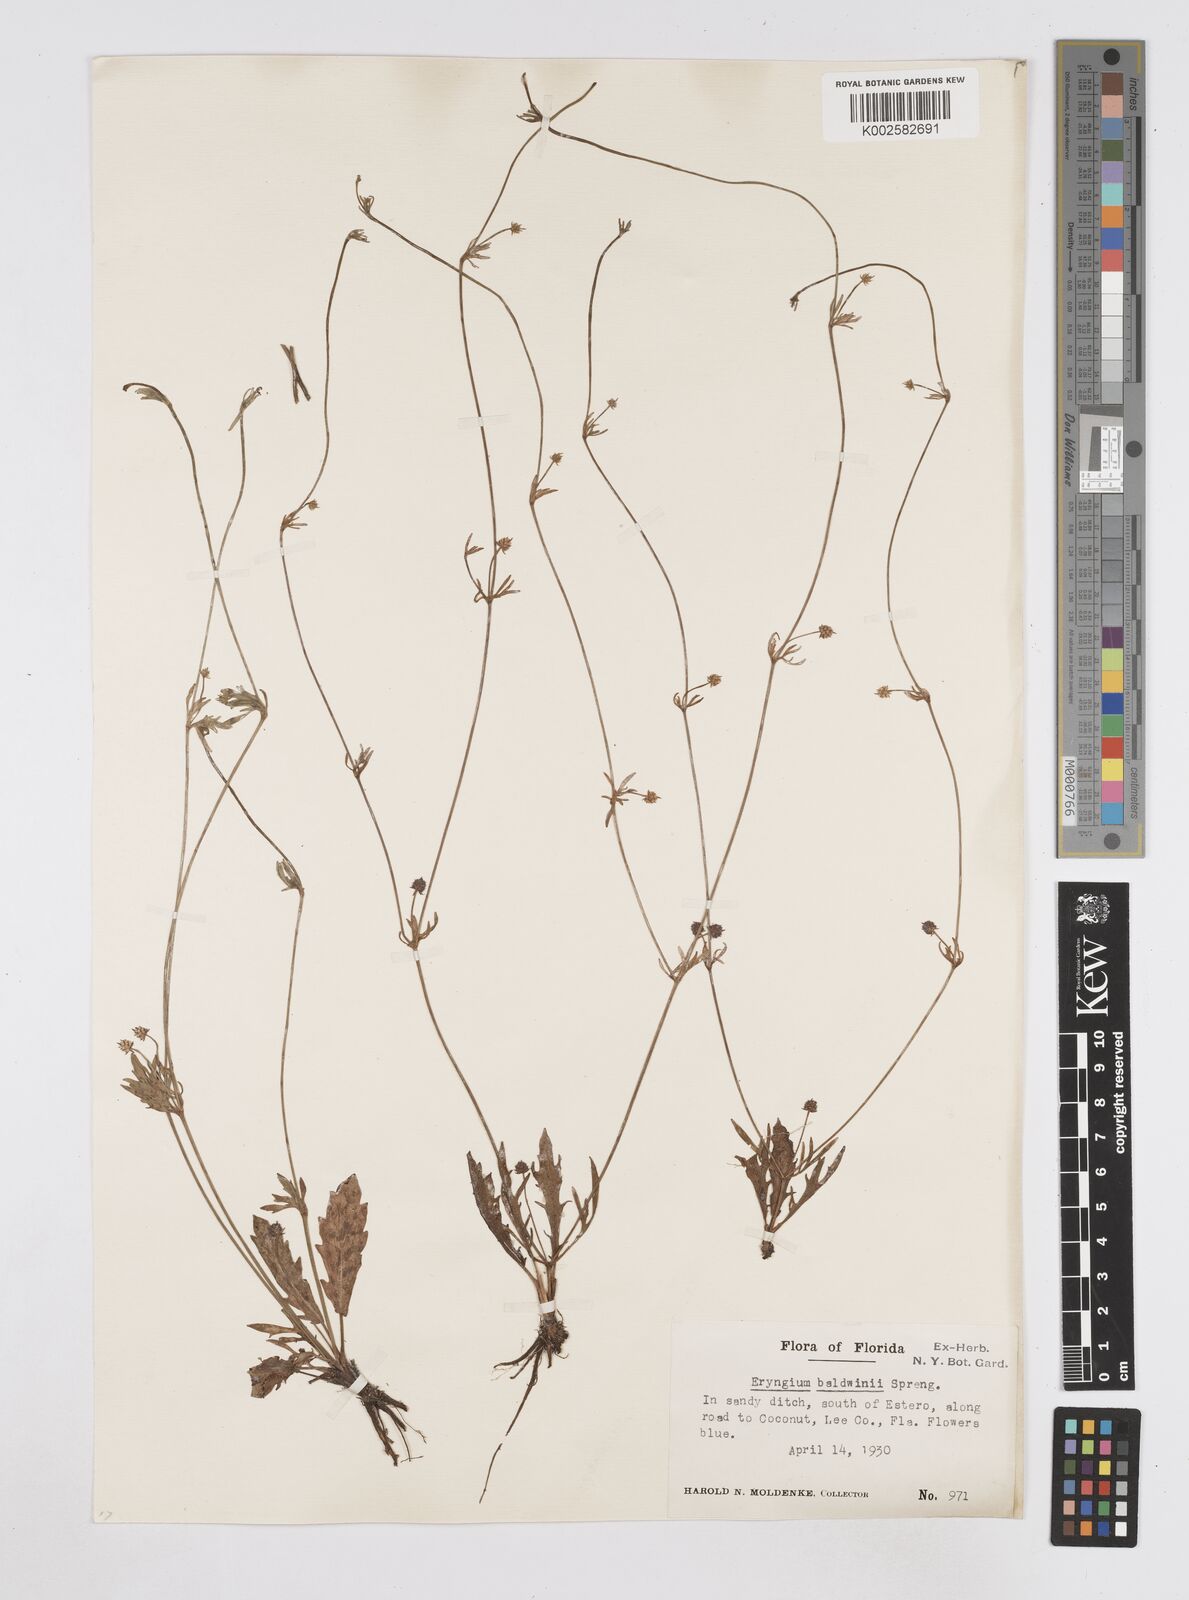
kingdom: Plantae
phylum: Tracheophyta
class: Magnoliopsida
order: Apiales
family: Apiaceae
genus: Eryngium
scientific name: Eryngium baldwinii
